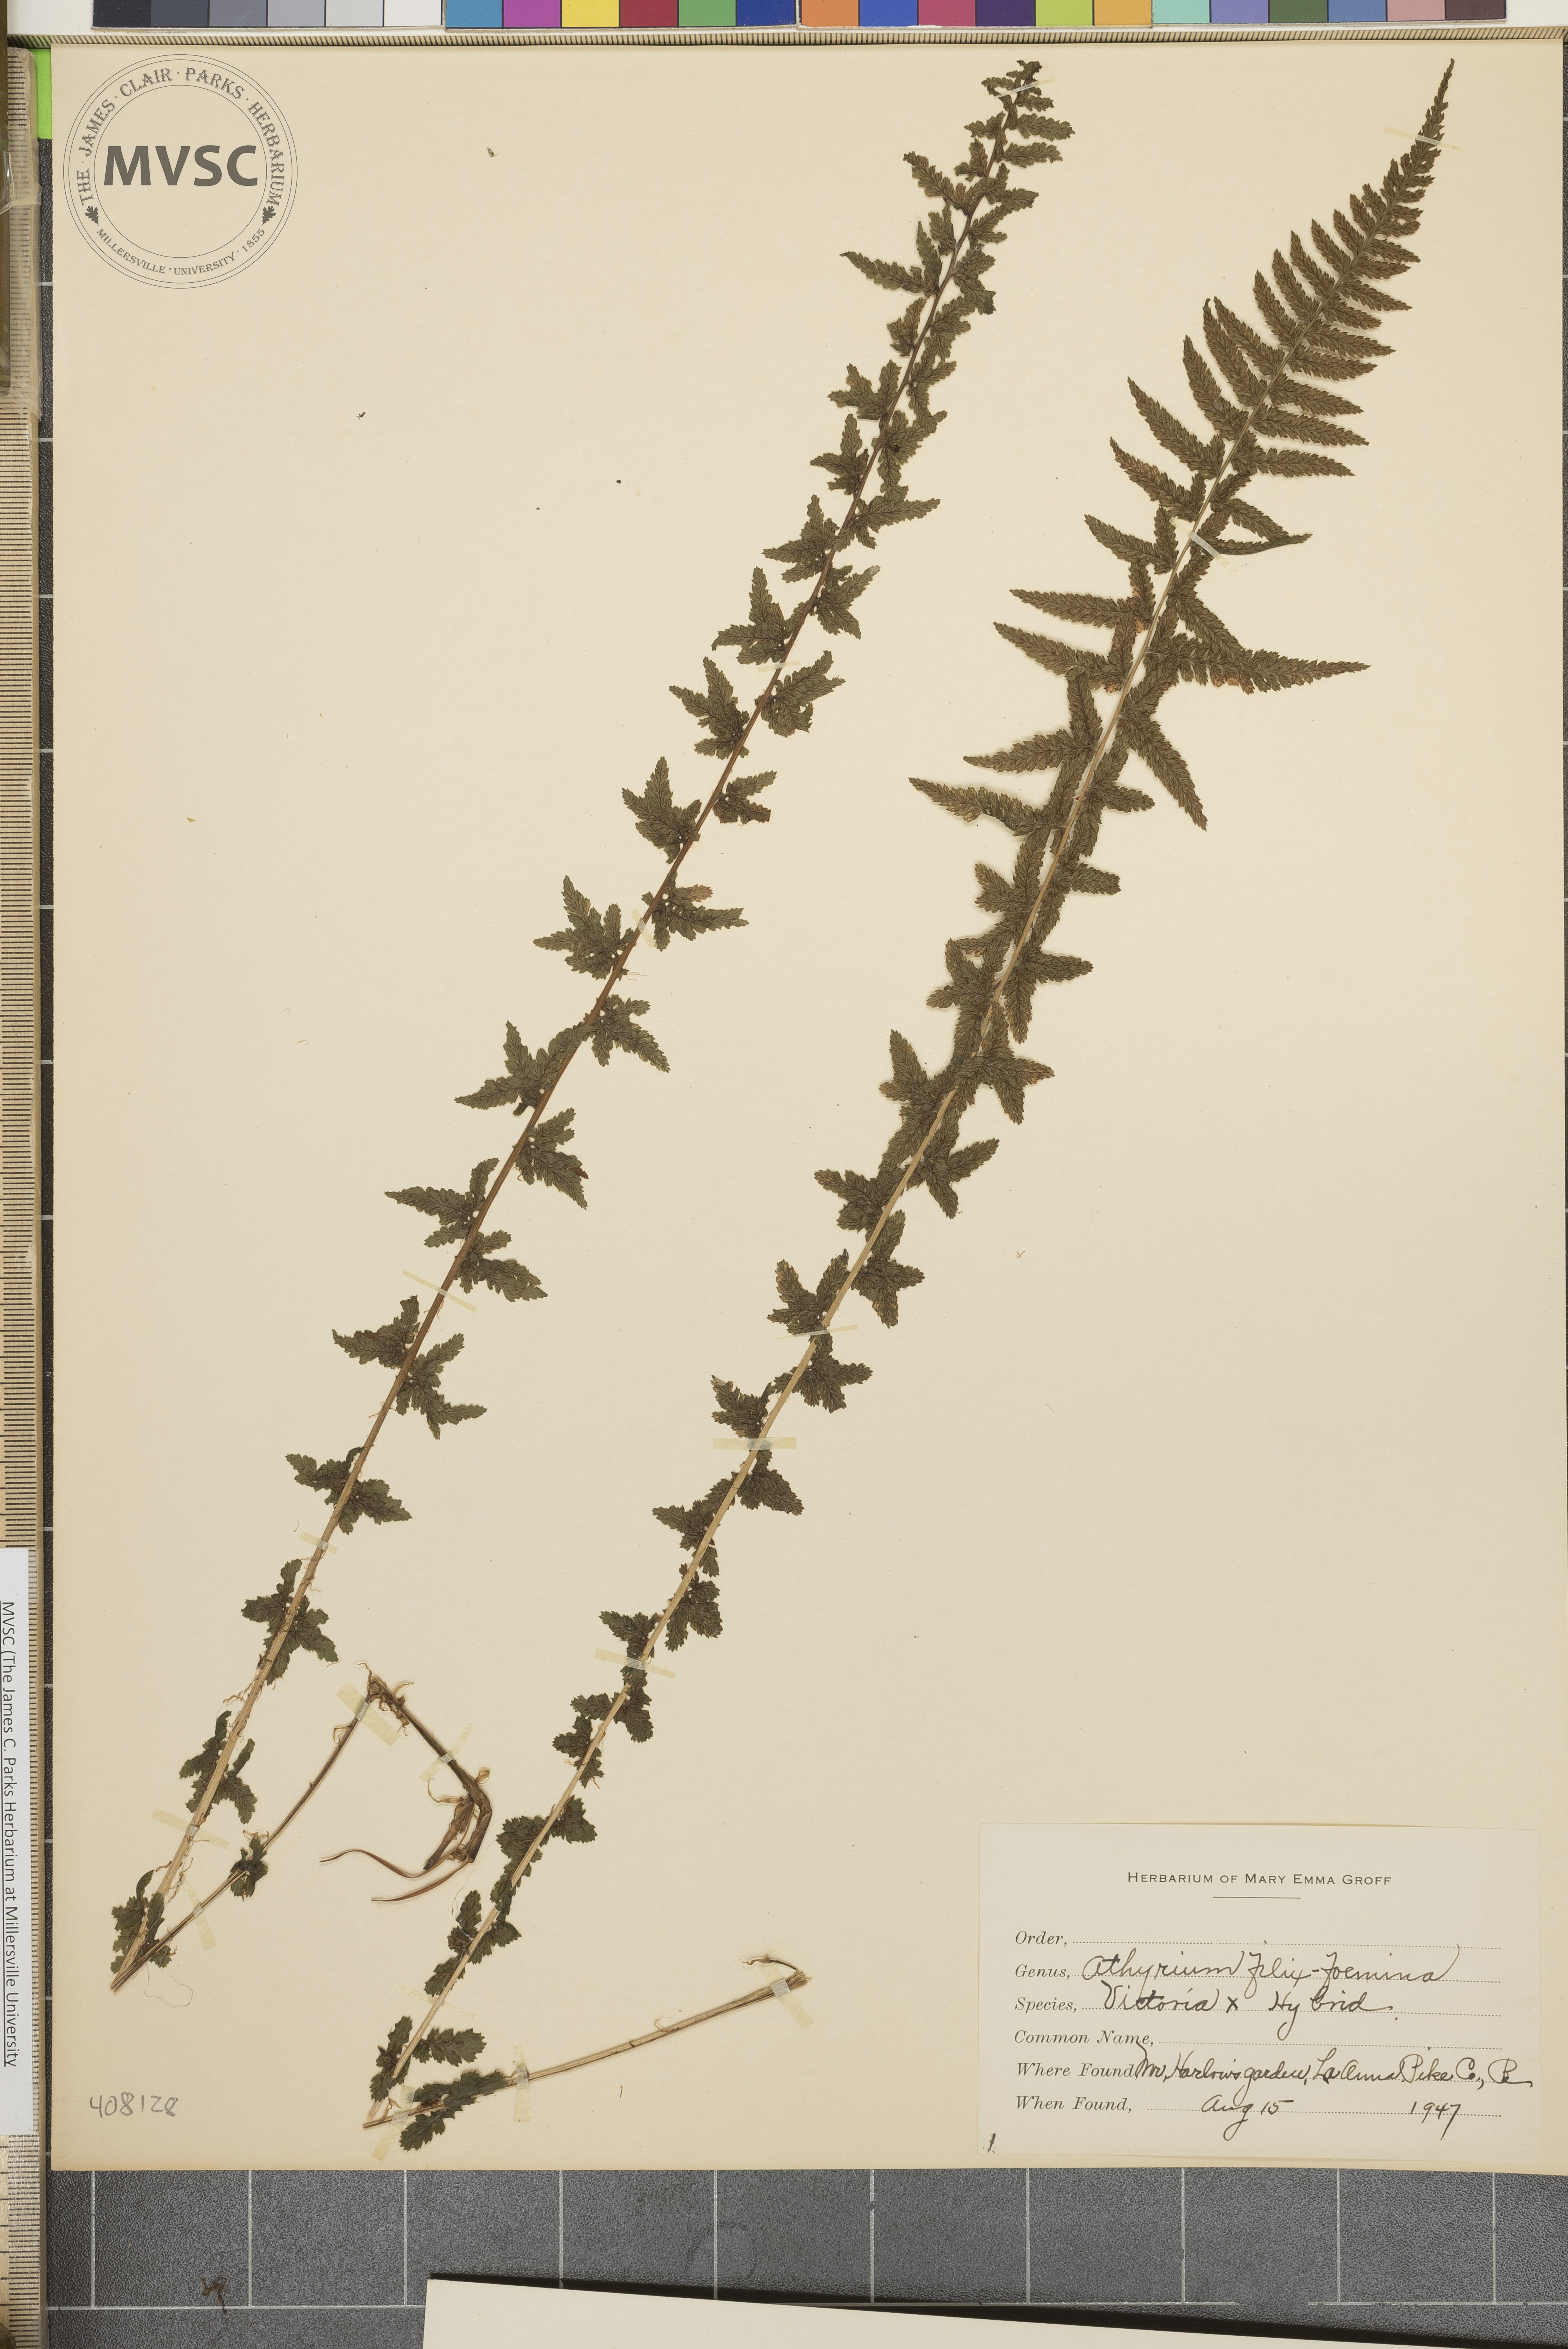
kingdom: Plantae
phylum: Tracheophyta
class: Polypodiopsida
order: Polypodiales
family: Athyriaceae
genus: Athyrium
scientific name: Athyrium filix-foemina
